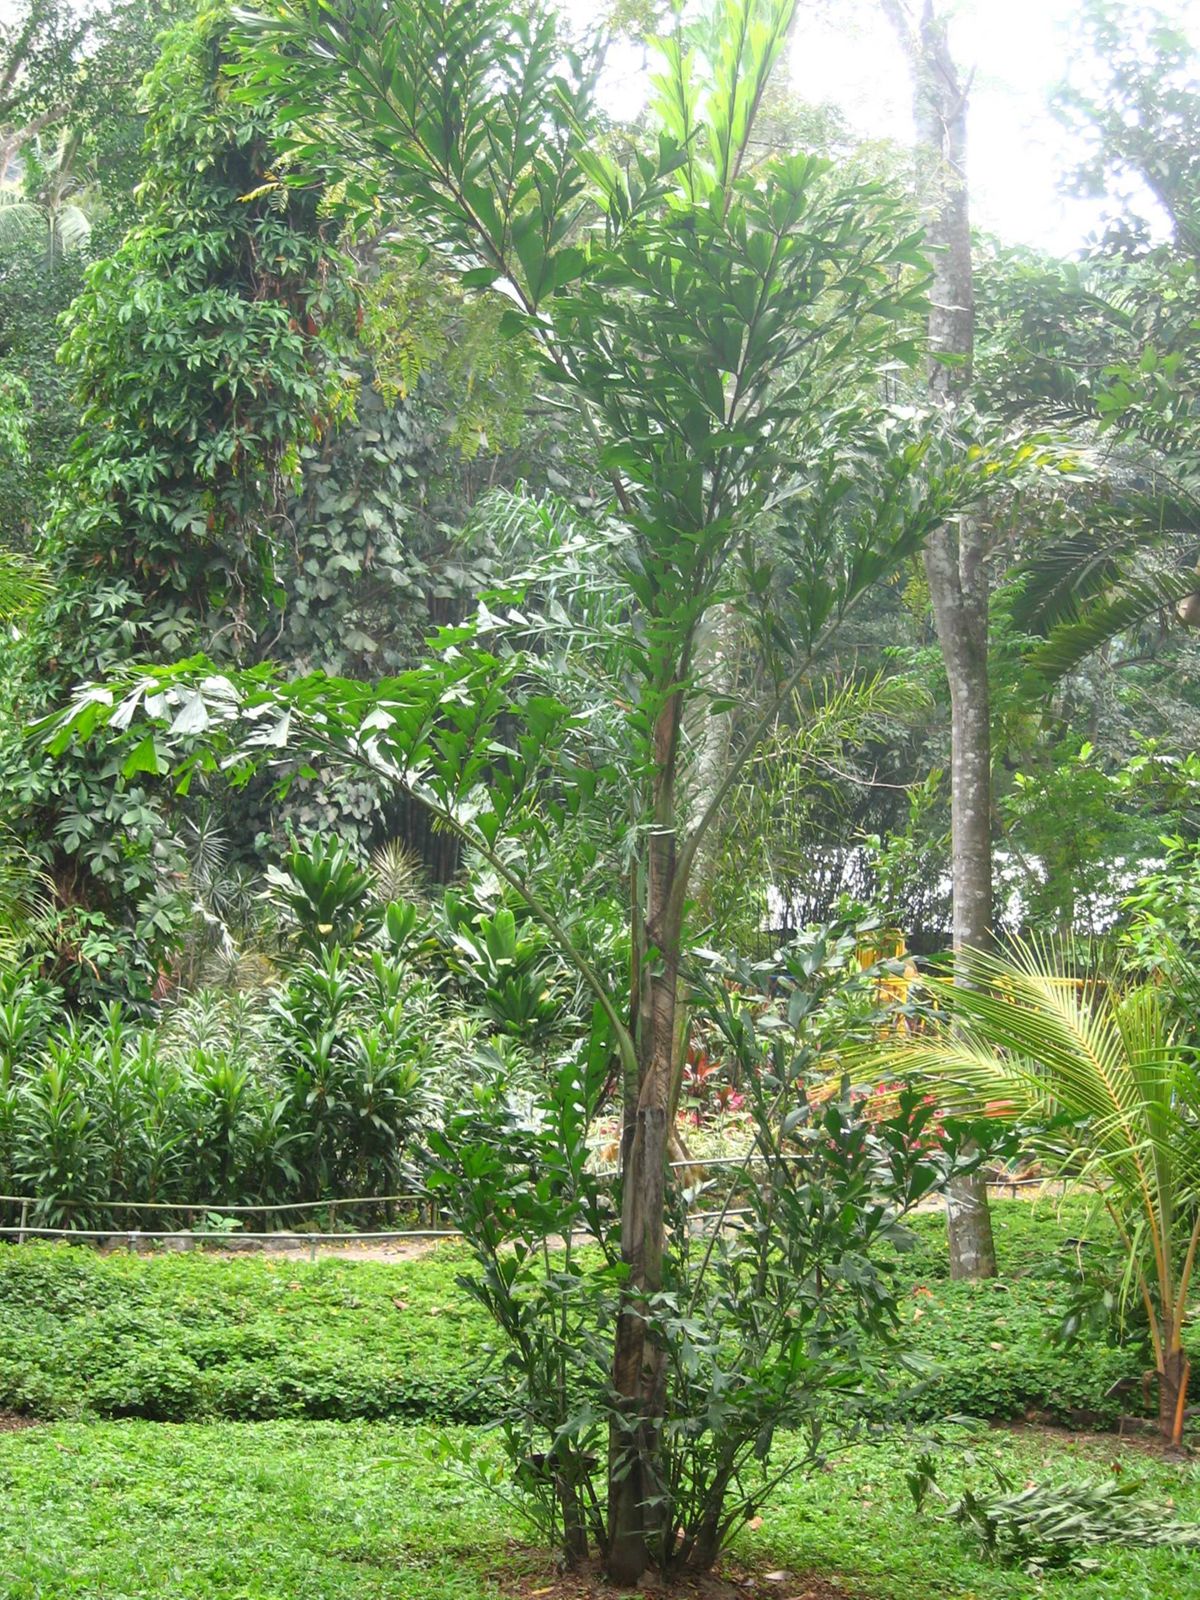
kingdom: Plantae
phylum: Tracheophyta
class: Liliopsida
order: Arecales
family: Arecaceae
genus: Caryota
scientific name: Caryota mitis
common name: Burmese fishtail palm
